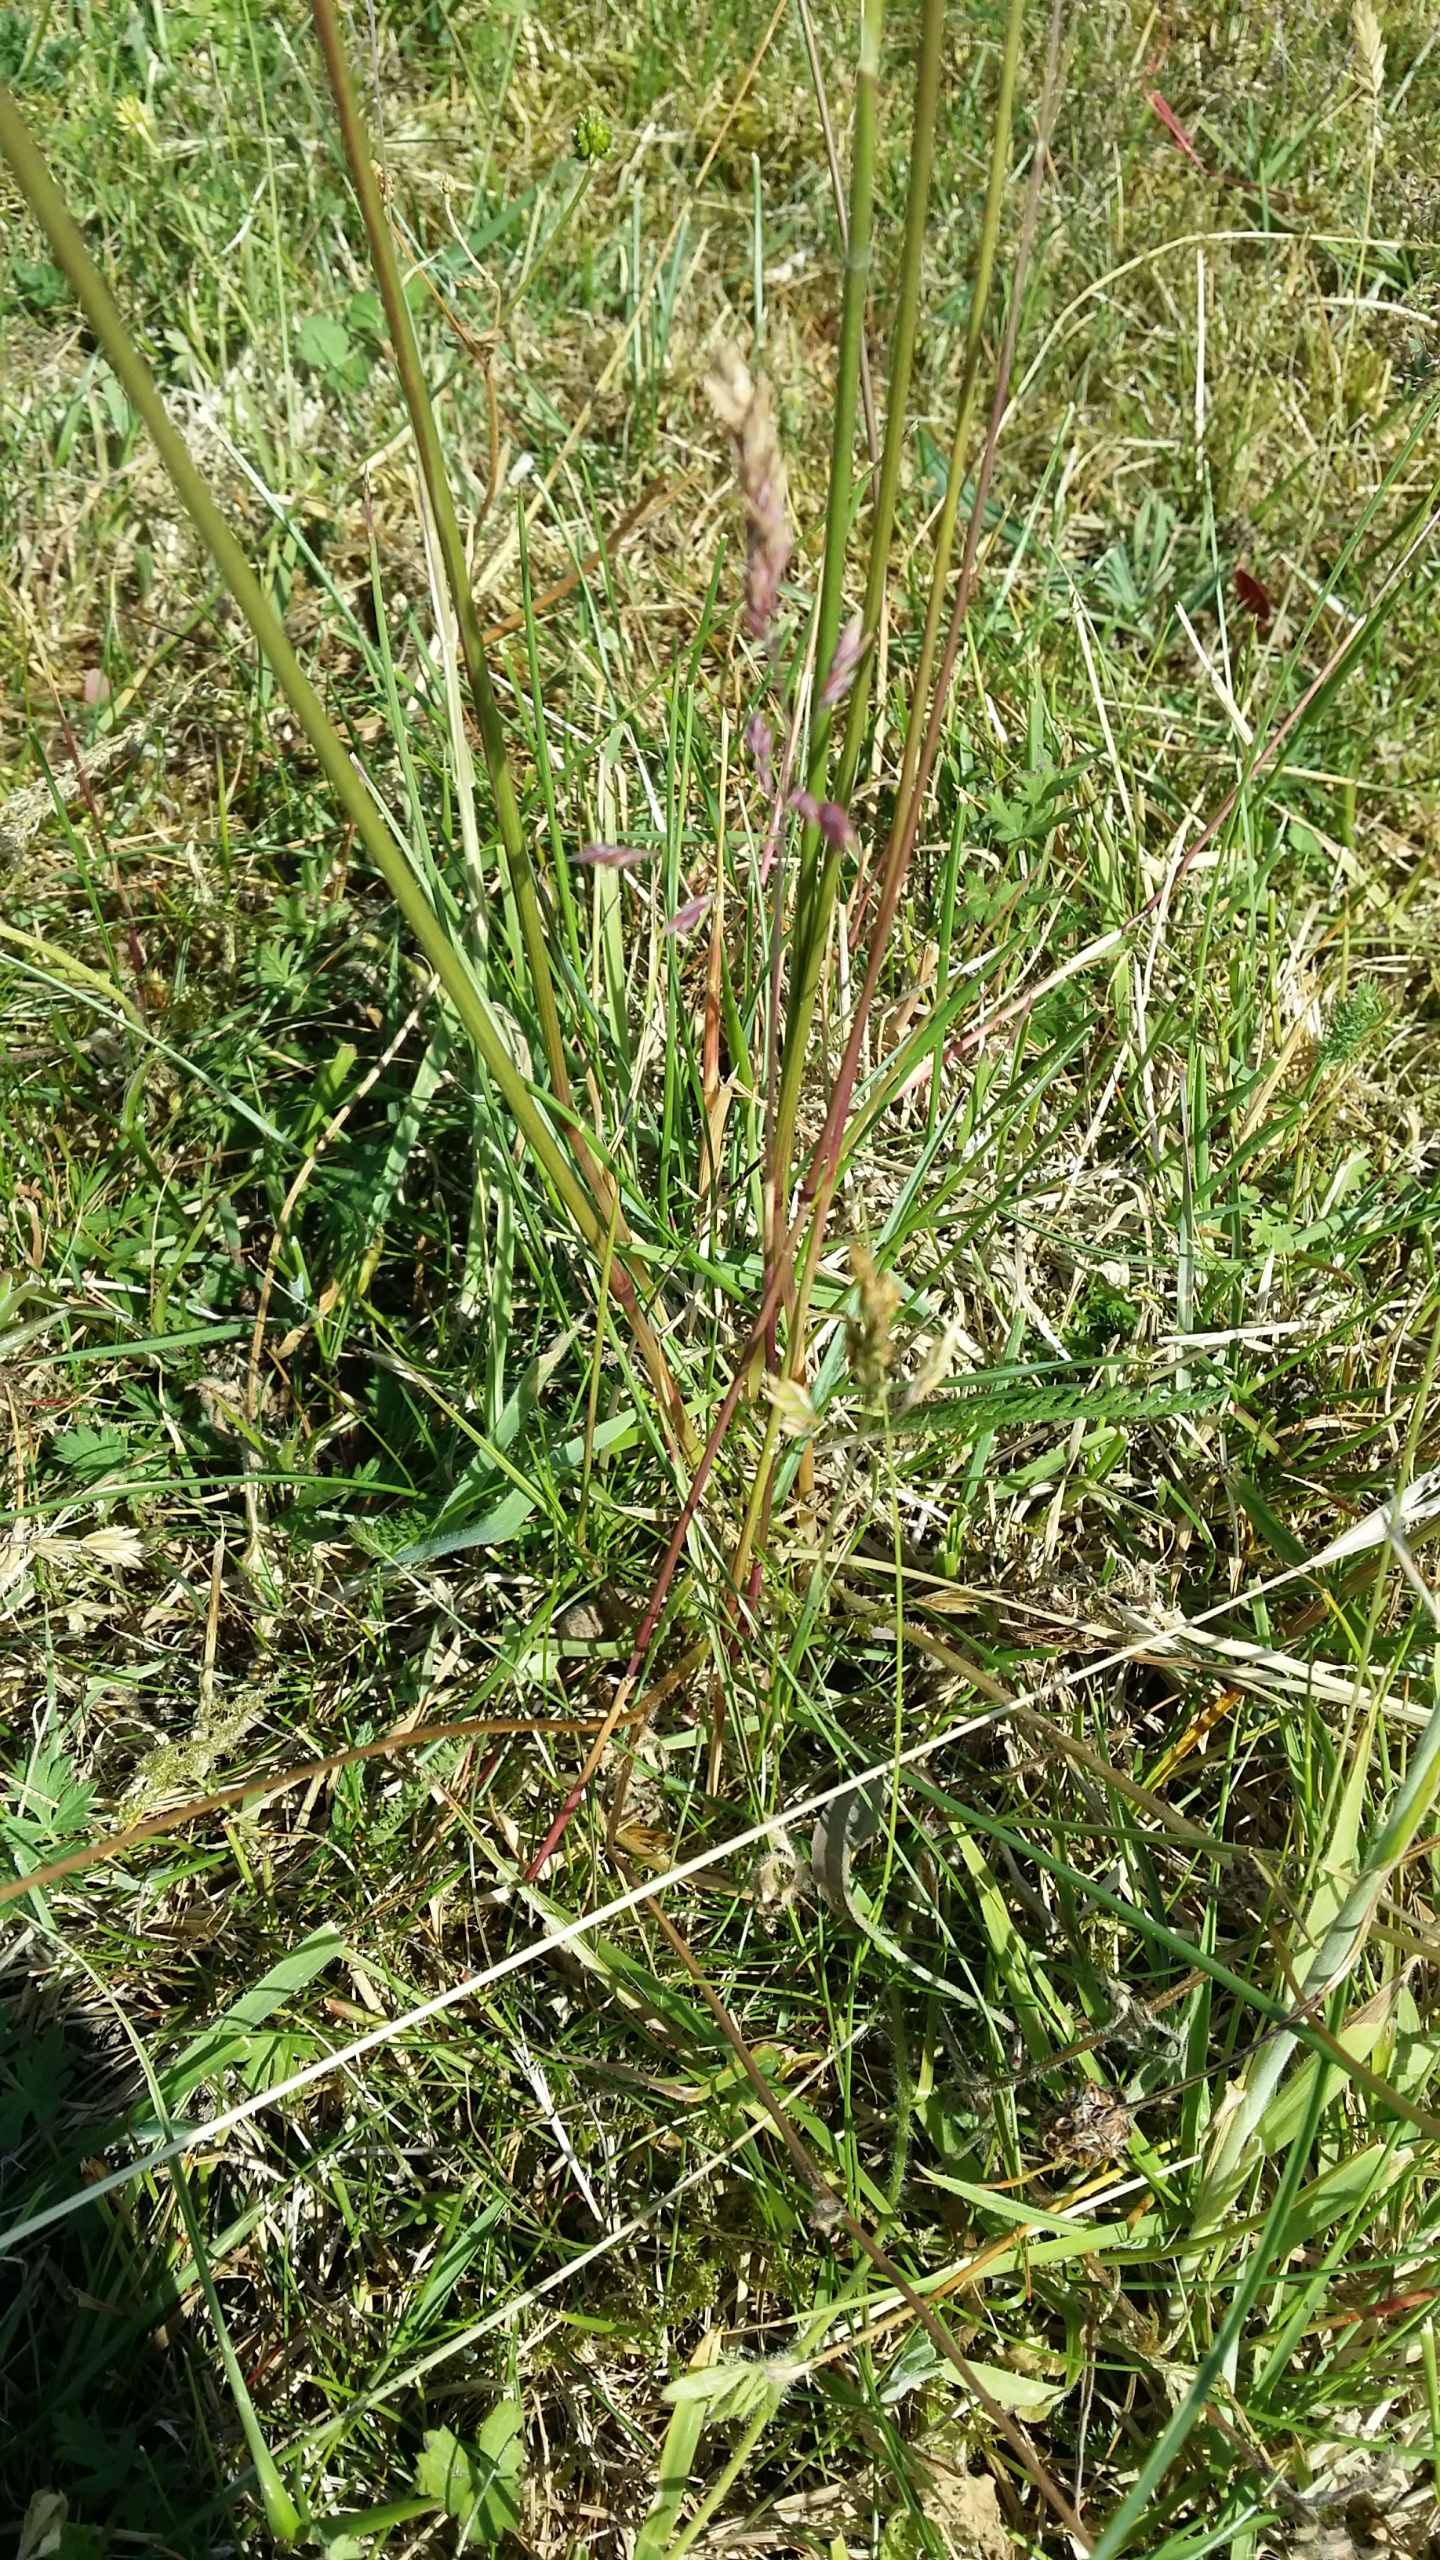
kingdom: Plantae
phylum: Tracheophyta
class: Liliopsida
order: Poales
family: Poaceae
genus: Helictochloa
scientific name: Helictochloa pratensis
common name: Eng-havre
